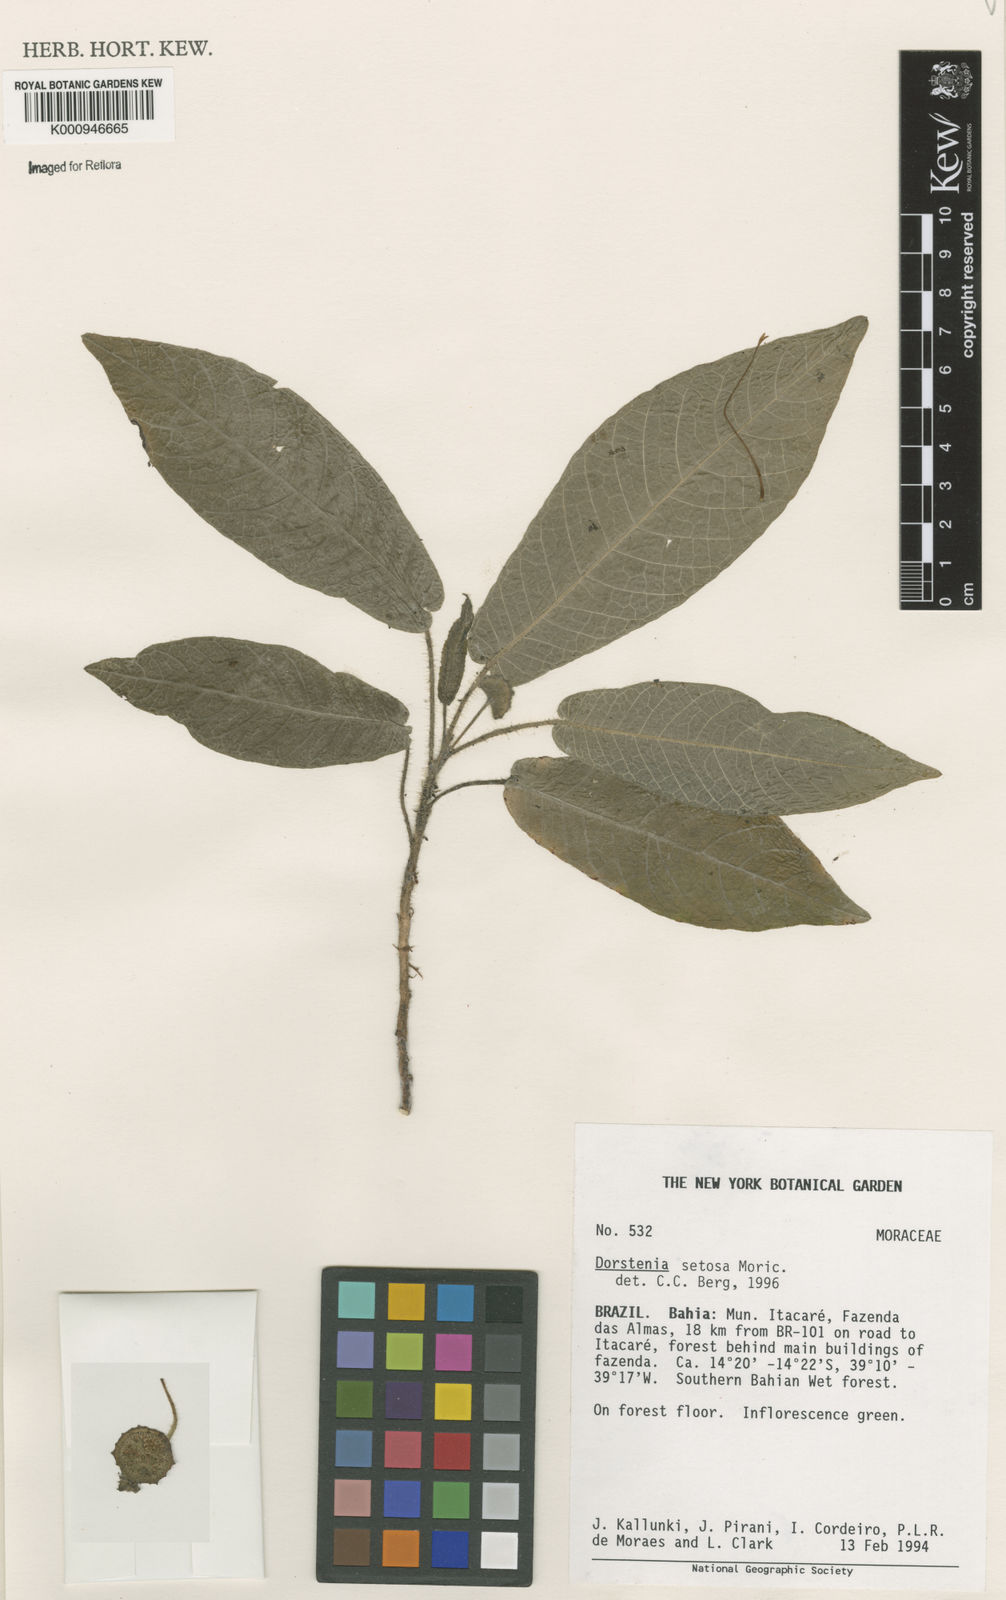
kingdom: Plantae
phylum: Tracheophyta
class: Magnoliopsida
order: Rosales
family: Moraceae
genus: Dorstenia
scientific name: Dorstenia setosa
